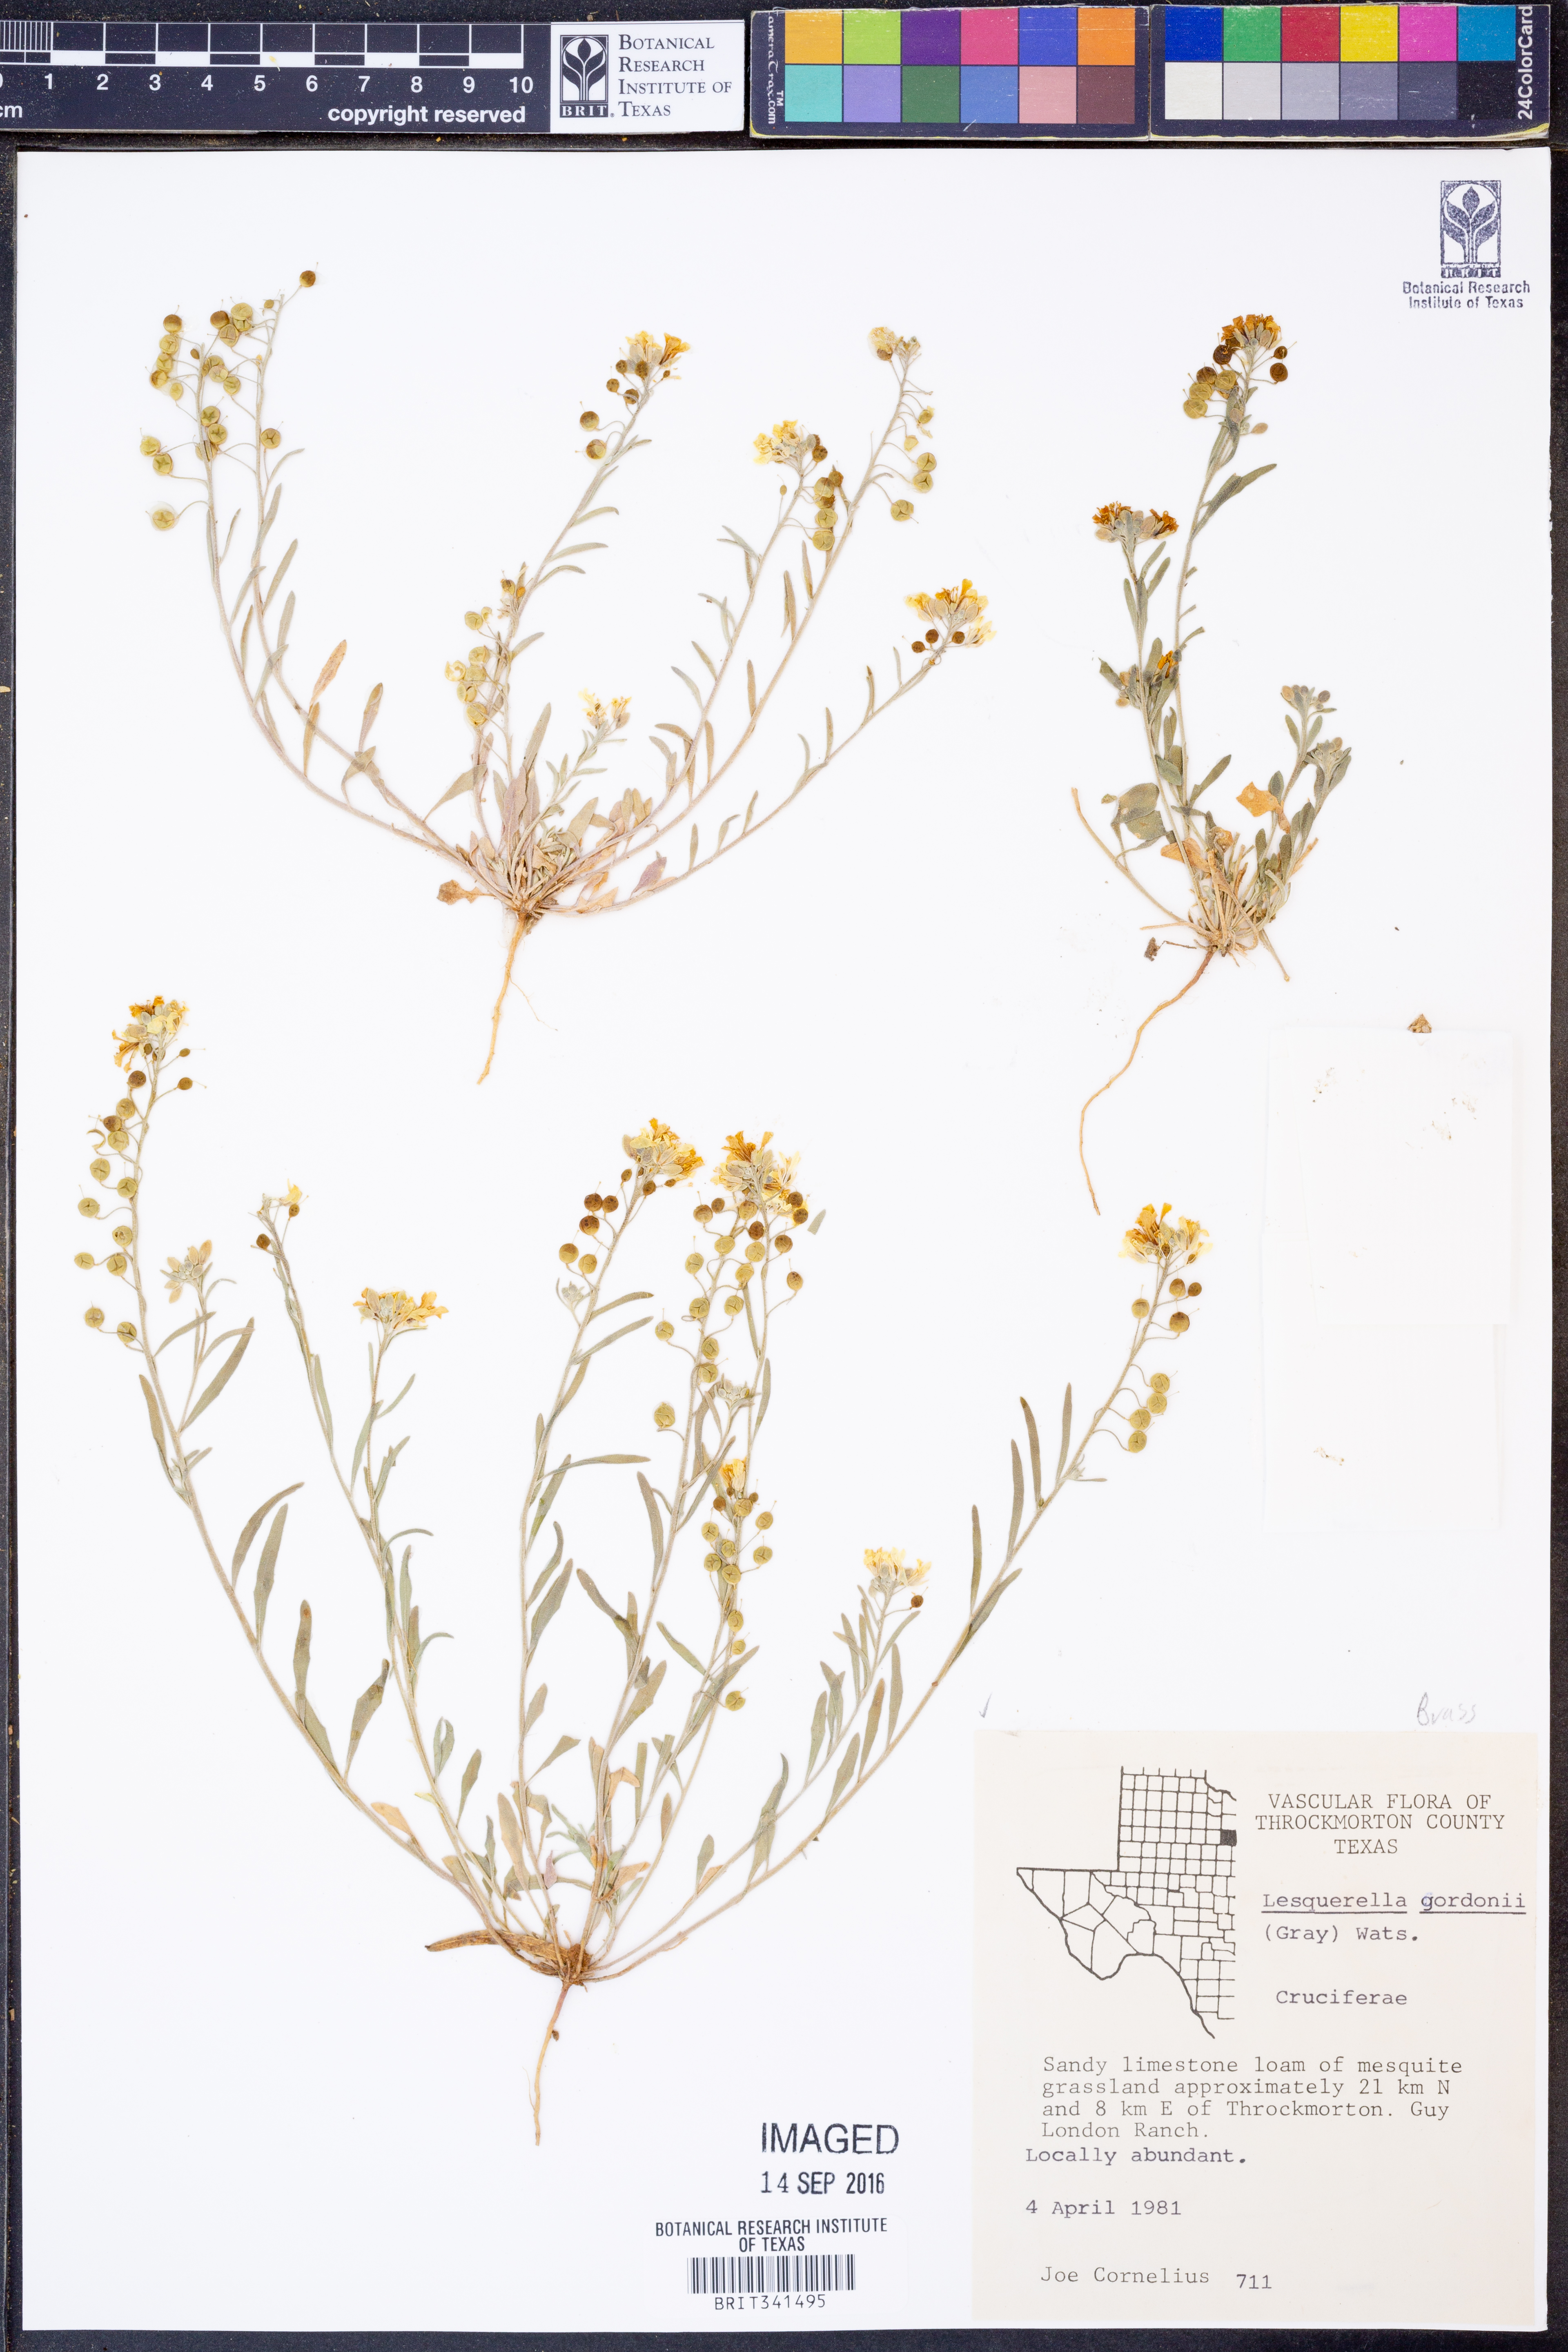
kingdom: Plantae
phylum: Tracheophyta
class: Magnoliopsida
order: Brassicales
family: Brassicaceae
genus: Physaria
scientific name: Physaria gordonii
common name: Gordon's bladderpod
